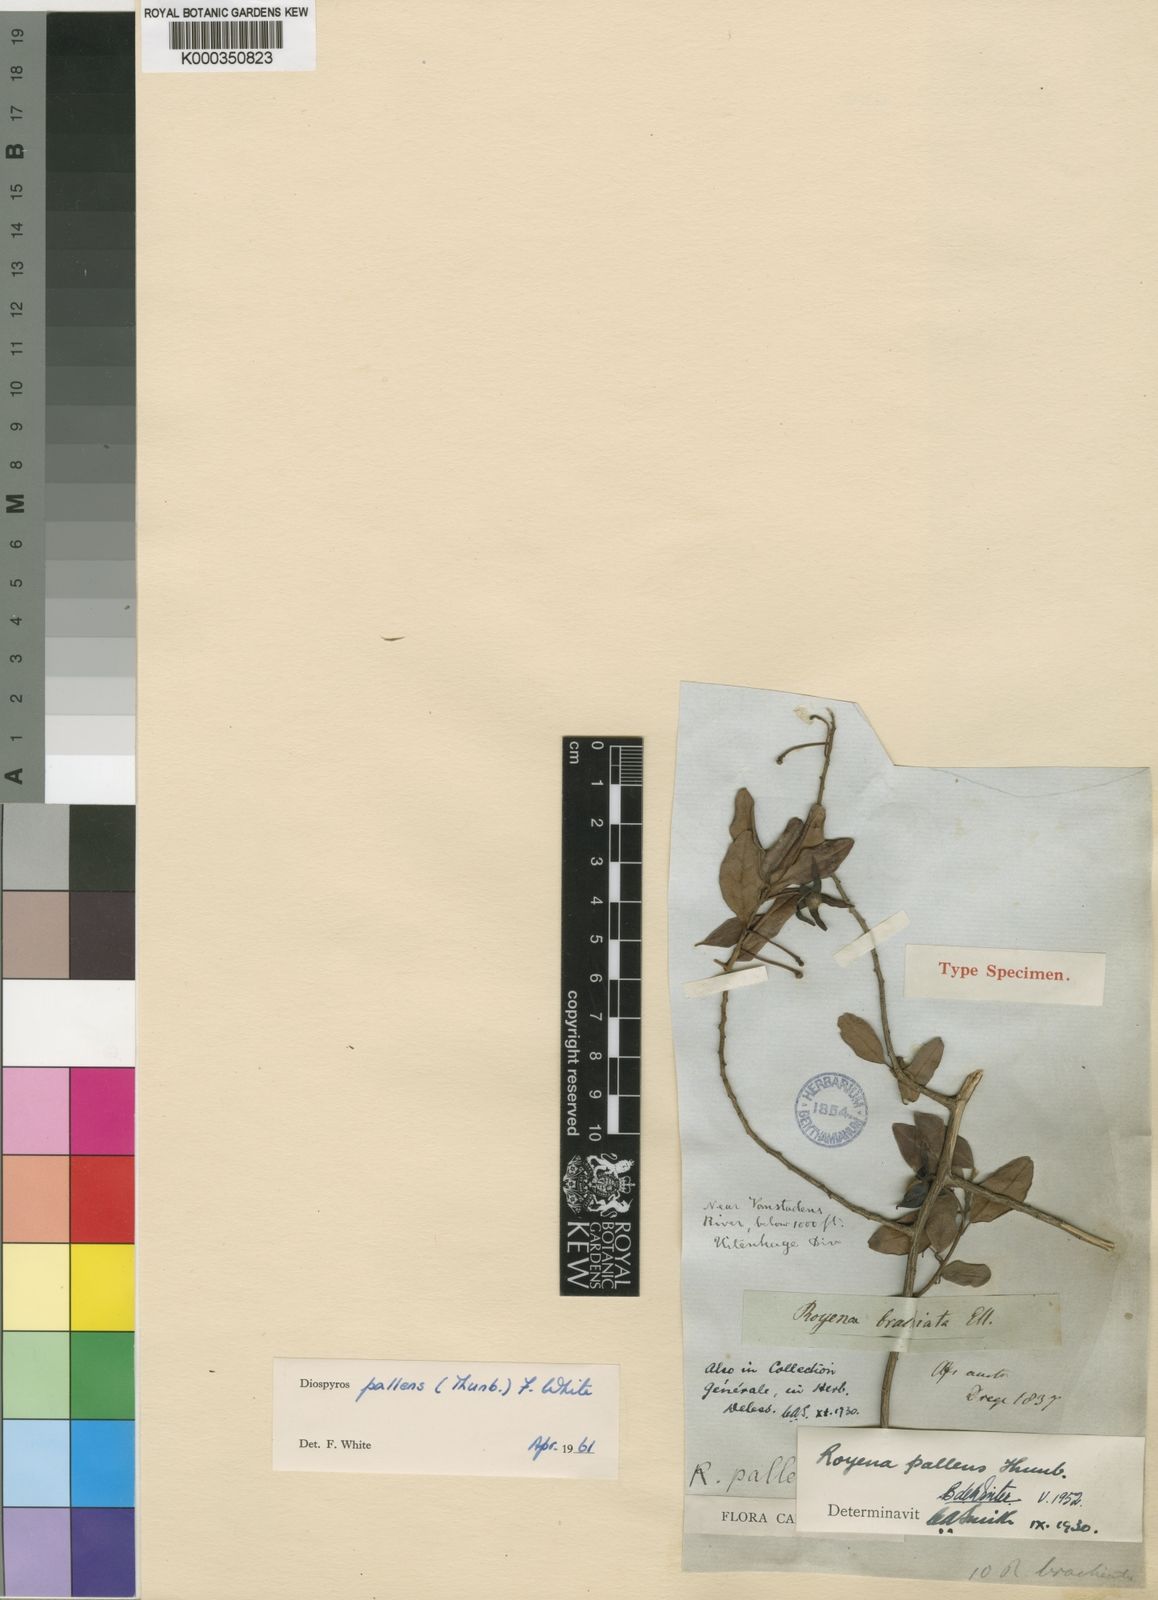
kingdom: Plantae
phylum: Tracheophyta
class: Magnoliopsida
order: Ericales
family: Ebenaceae
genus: Diospyros
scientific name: Diospyros pallens
